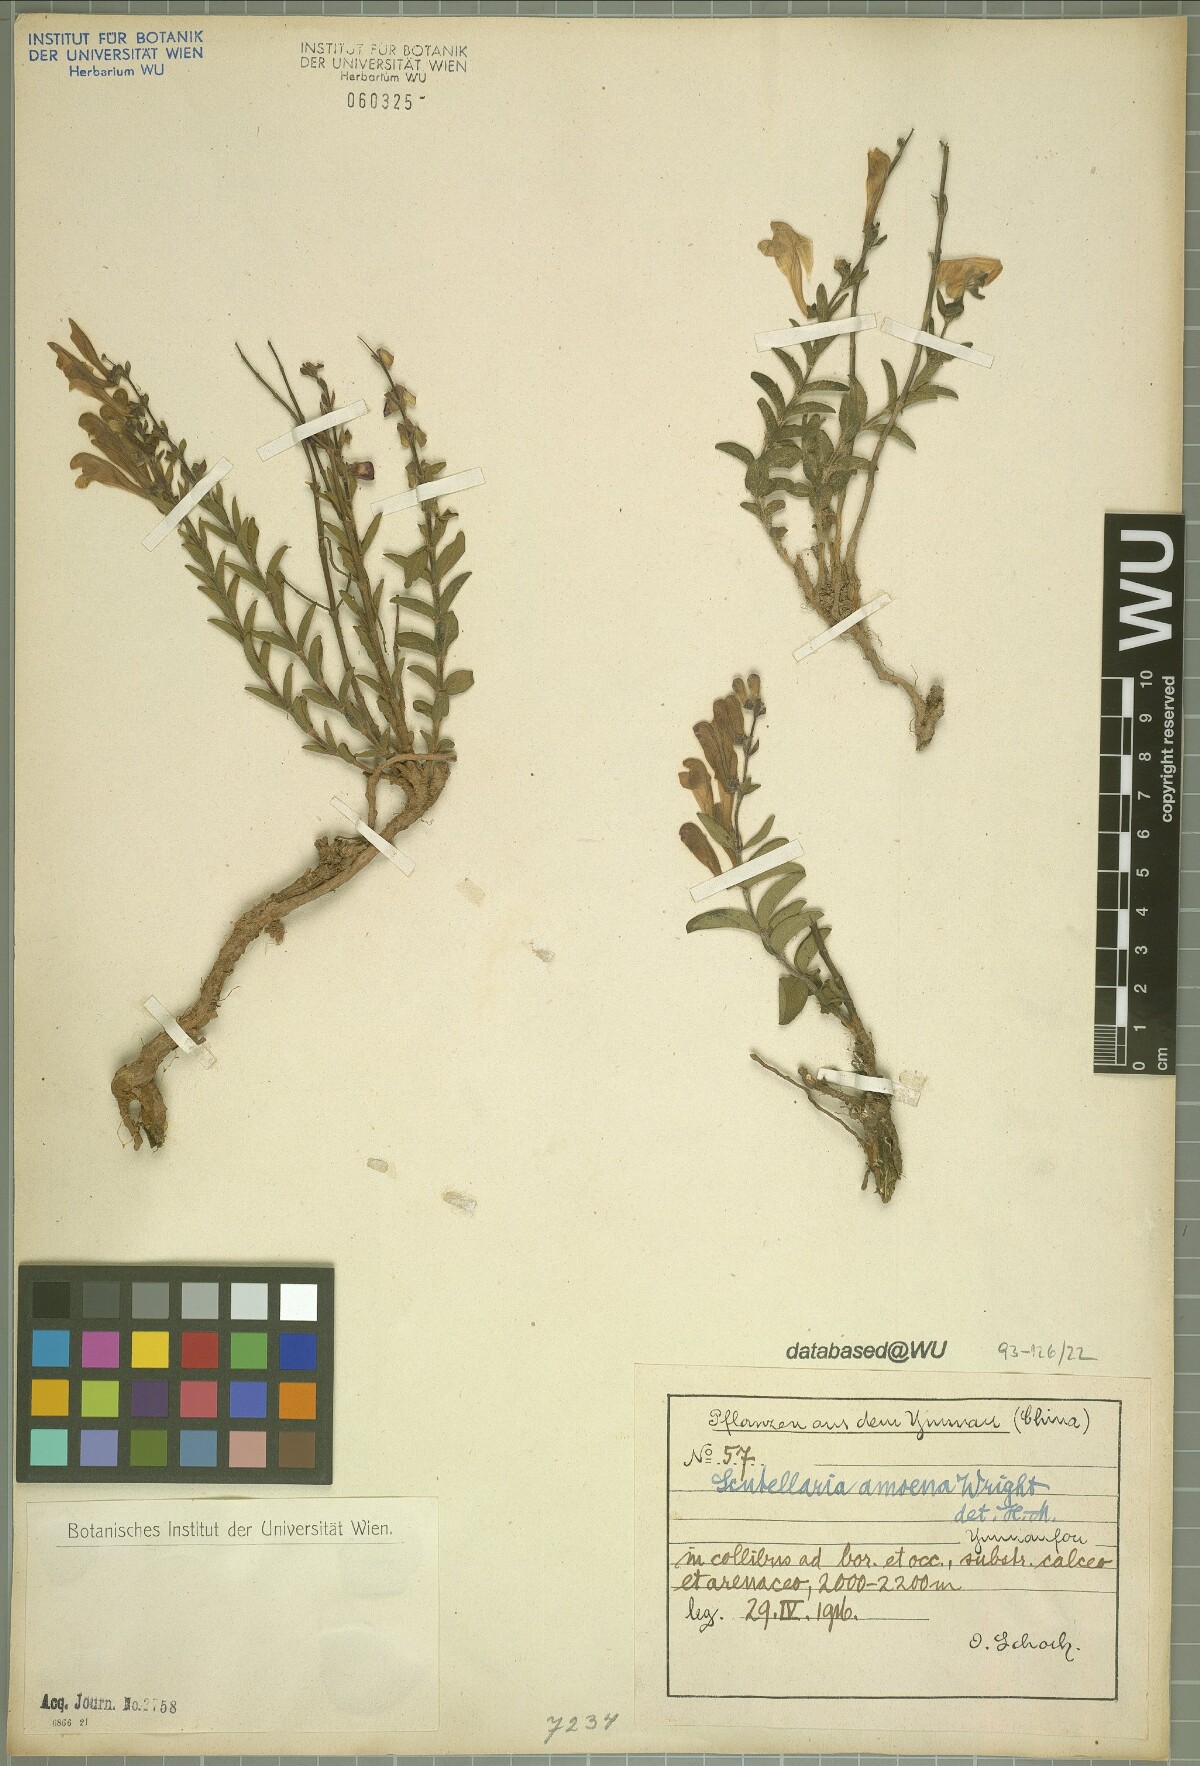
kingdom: Plantae
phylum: Tracheophyta
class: Magnoliopsida
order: Lamiales
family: Lamiaceae
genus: Scutellaria
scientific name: Scutellaria amoena
